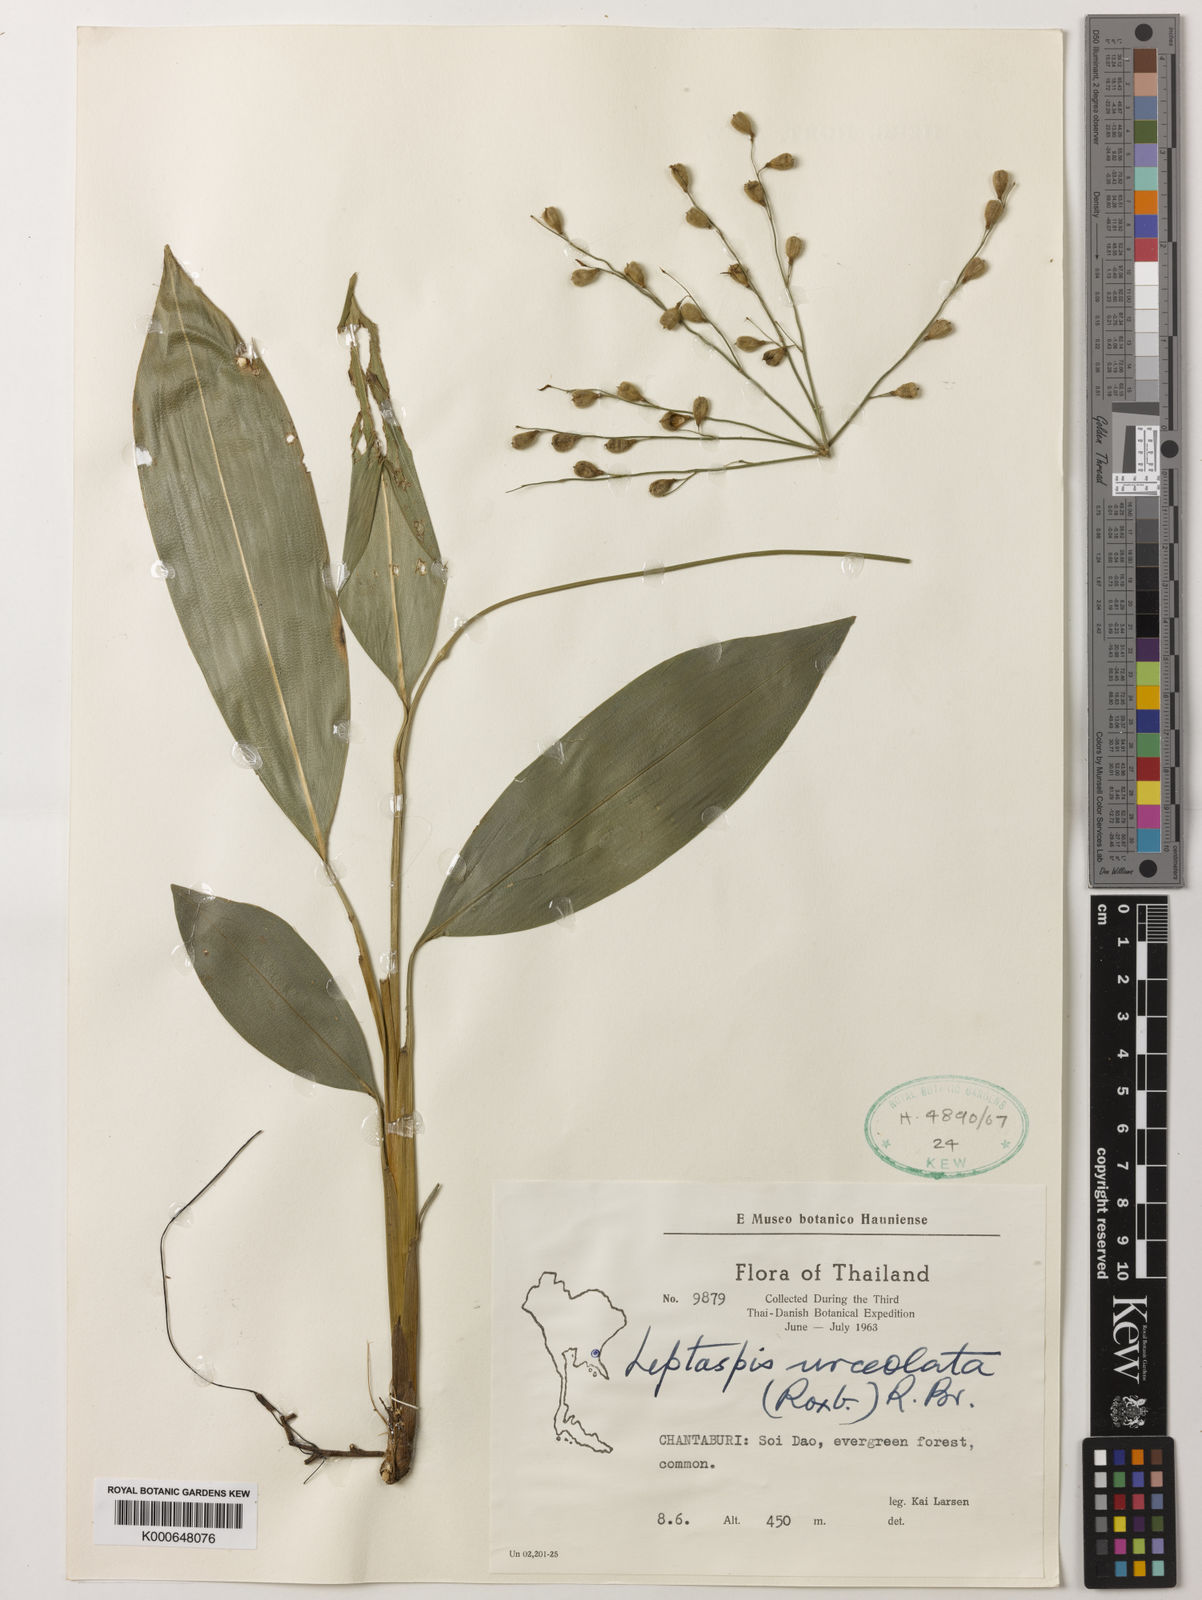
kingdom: Plantae
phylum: Tracheophyta
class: Liliopsida
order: Poales
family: Poaceae
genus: Scrotochloa
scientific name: Scrotochloa urceolata
